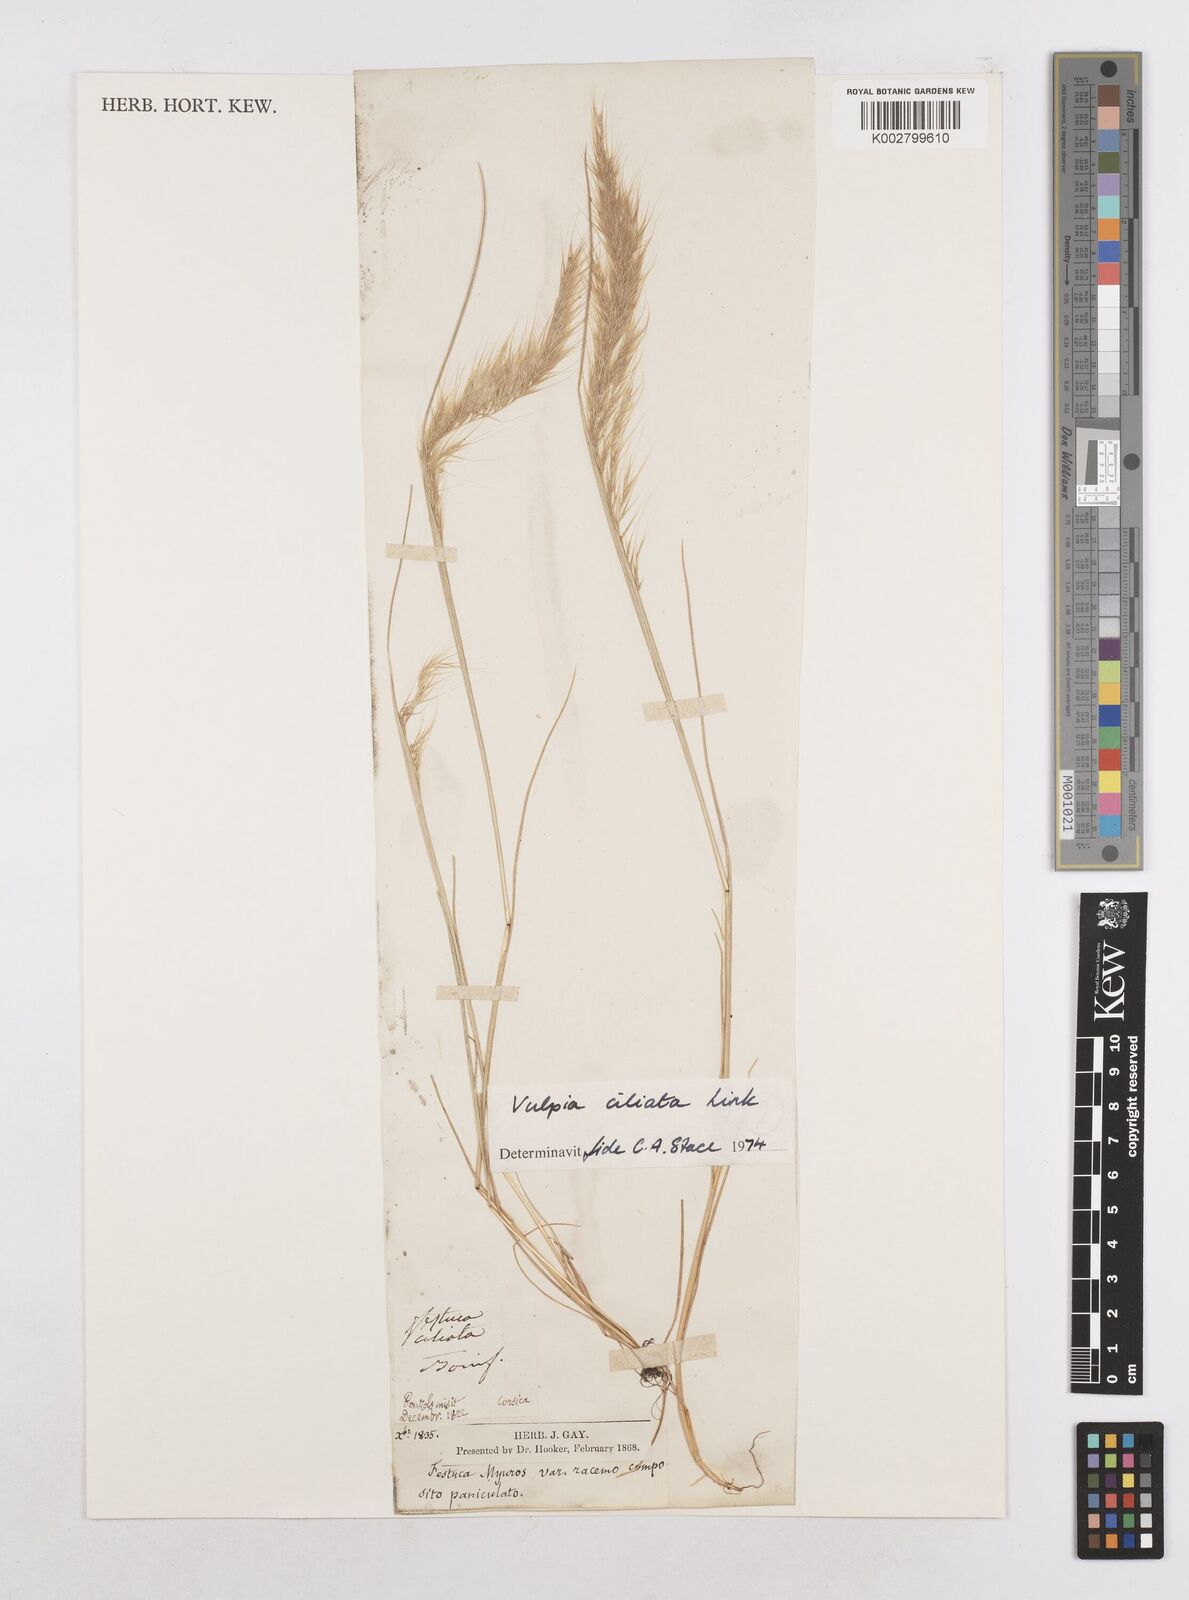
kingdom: Plantae
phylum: Tracheophyta
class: Liliopsida
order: Poales
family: Poaceae
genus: Festuca
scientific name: Festuca
